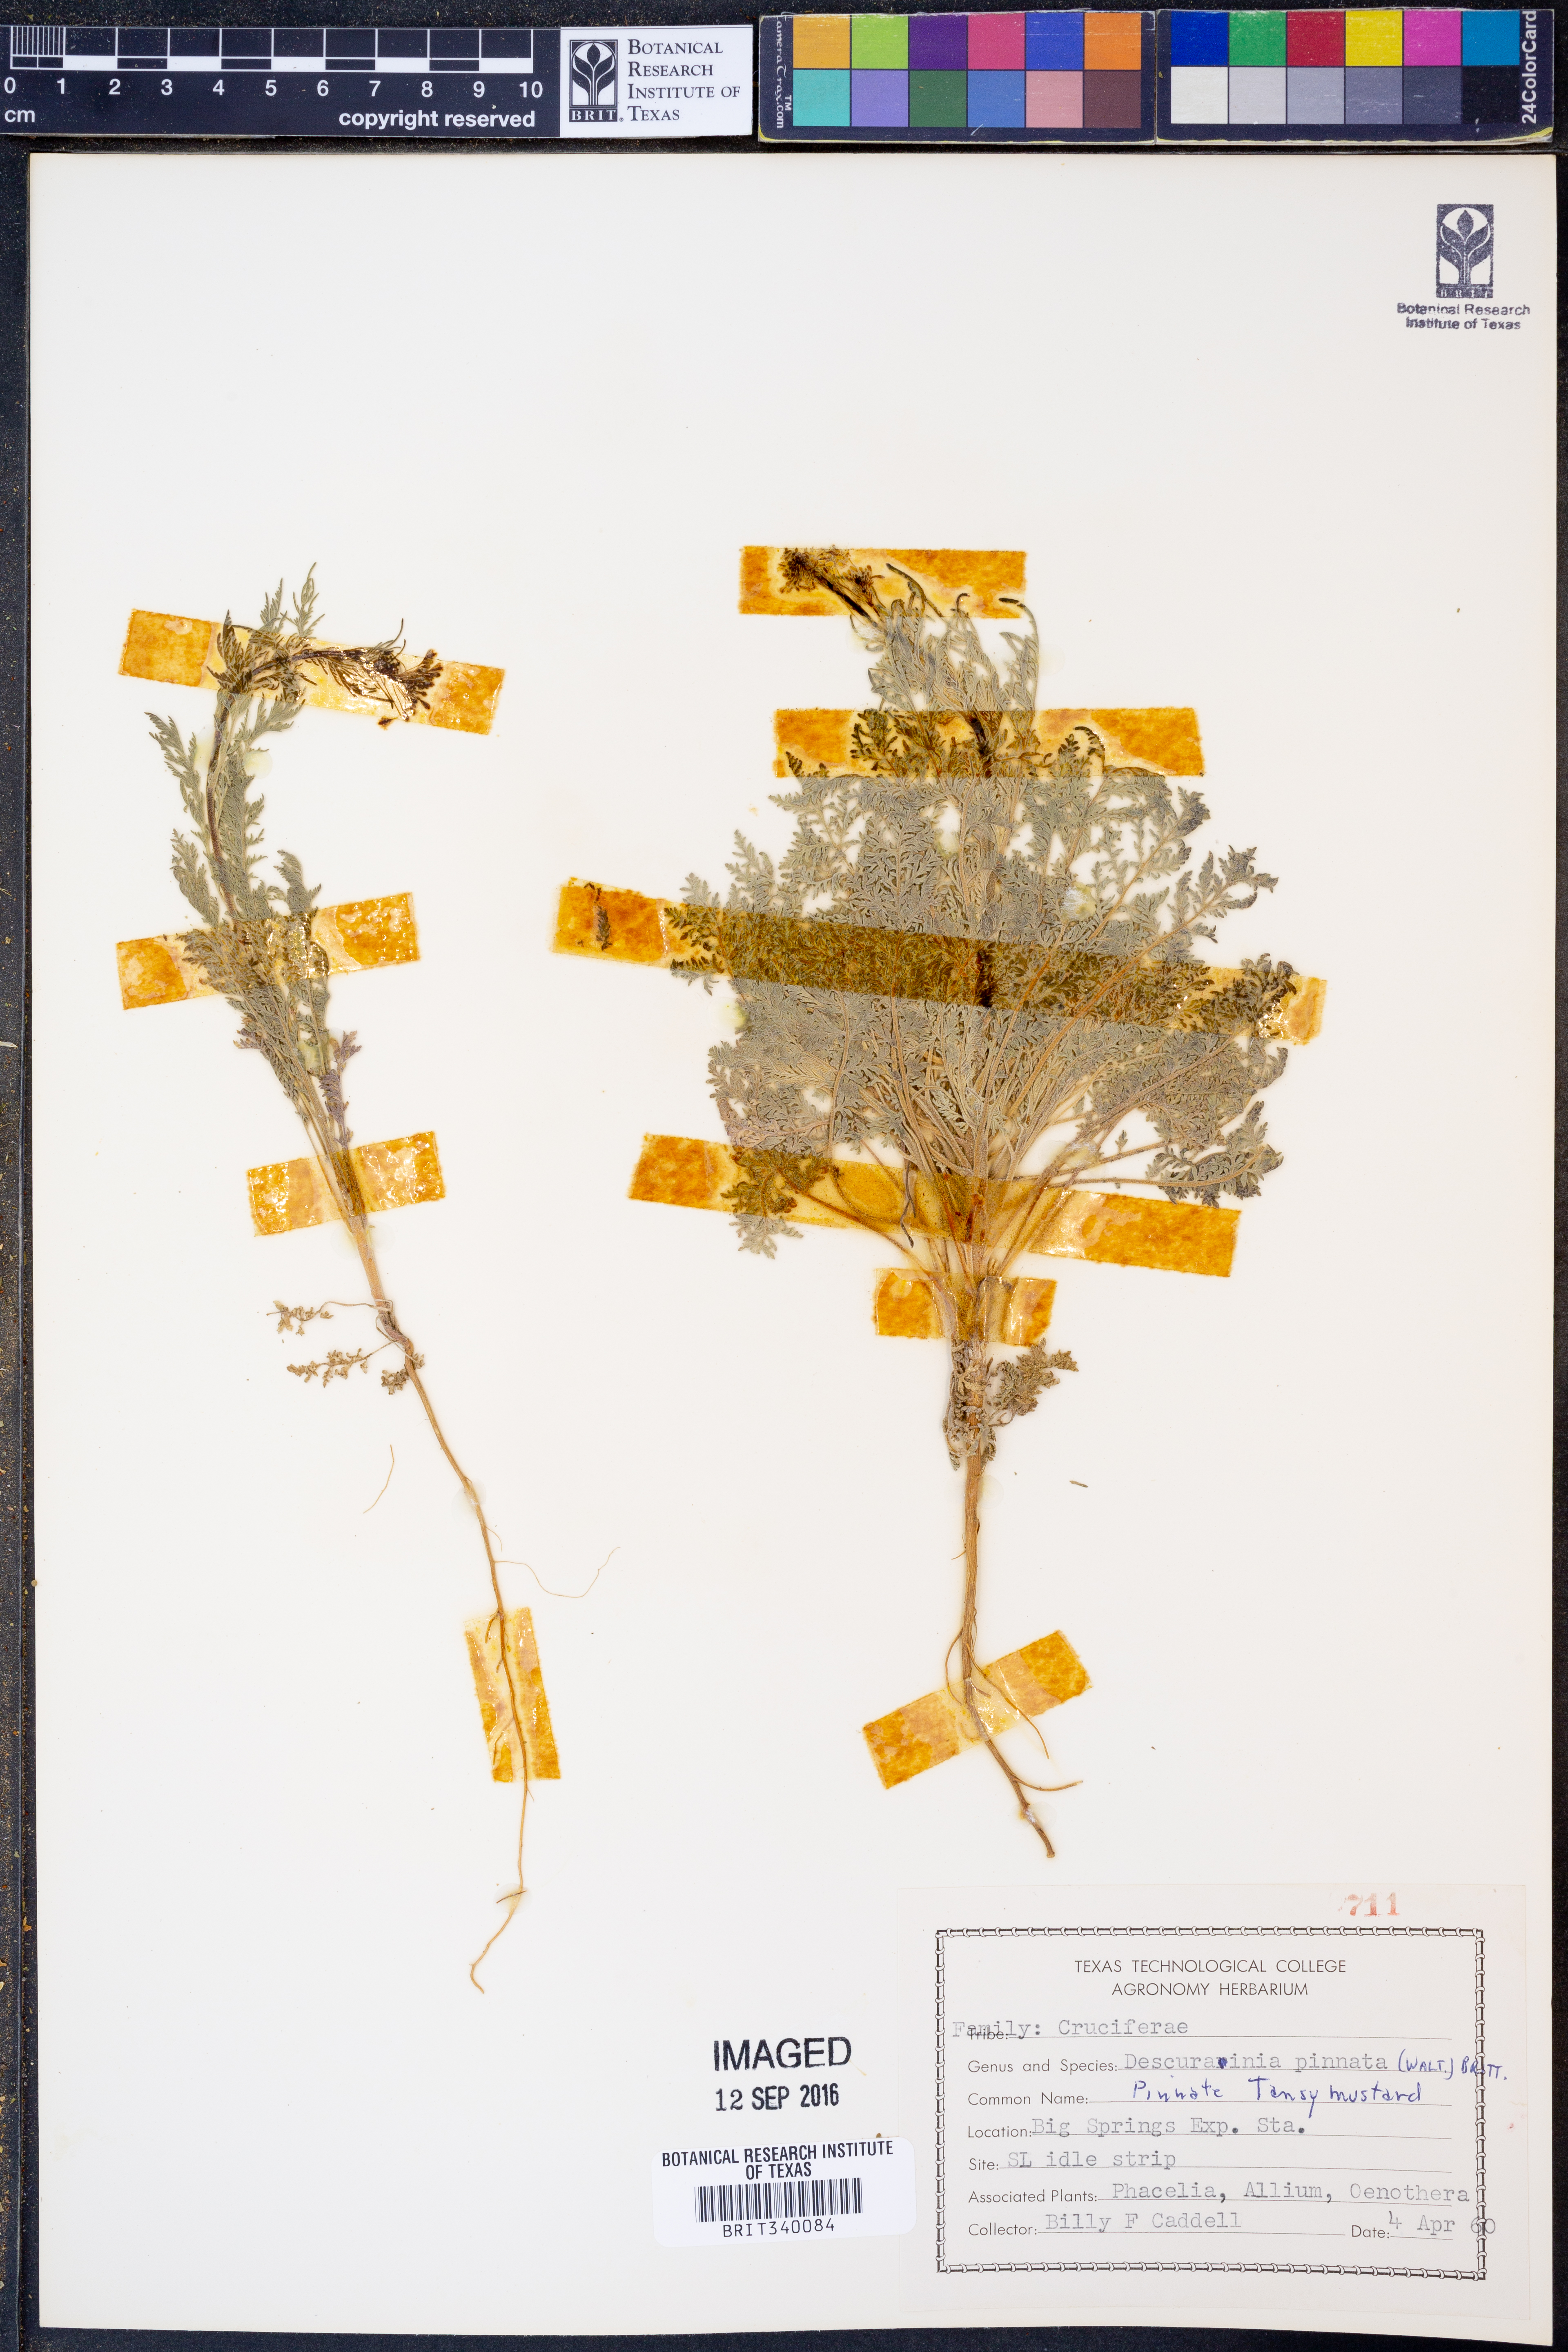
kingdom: Plantae
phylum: Tracheophyta
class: Magnoliopsida
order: Brassicales
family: Brassicaceae
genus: Descurainia
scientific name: Descurainia pinnata
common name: Western tansy mustard
